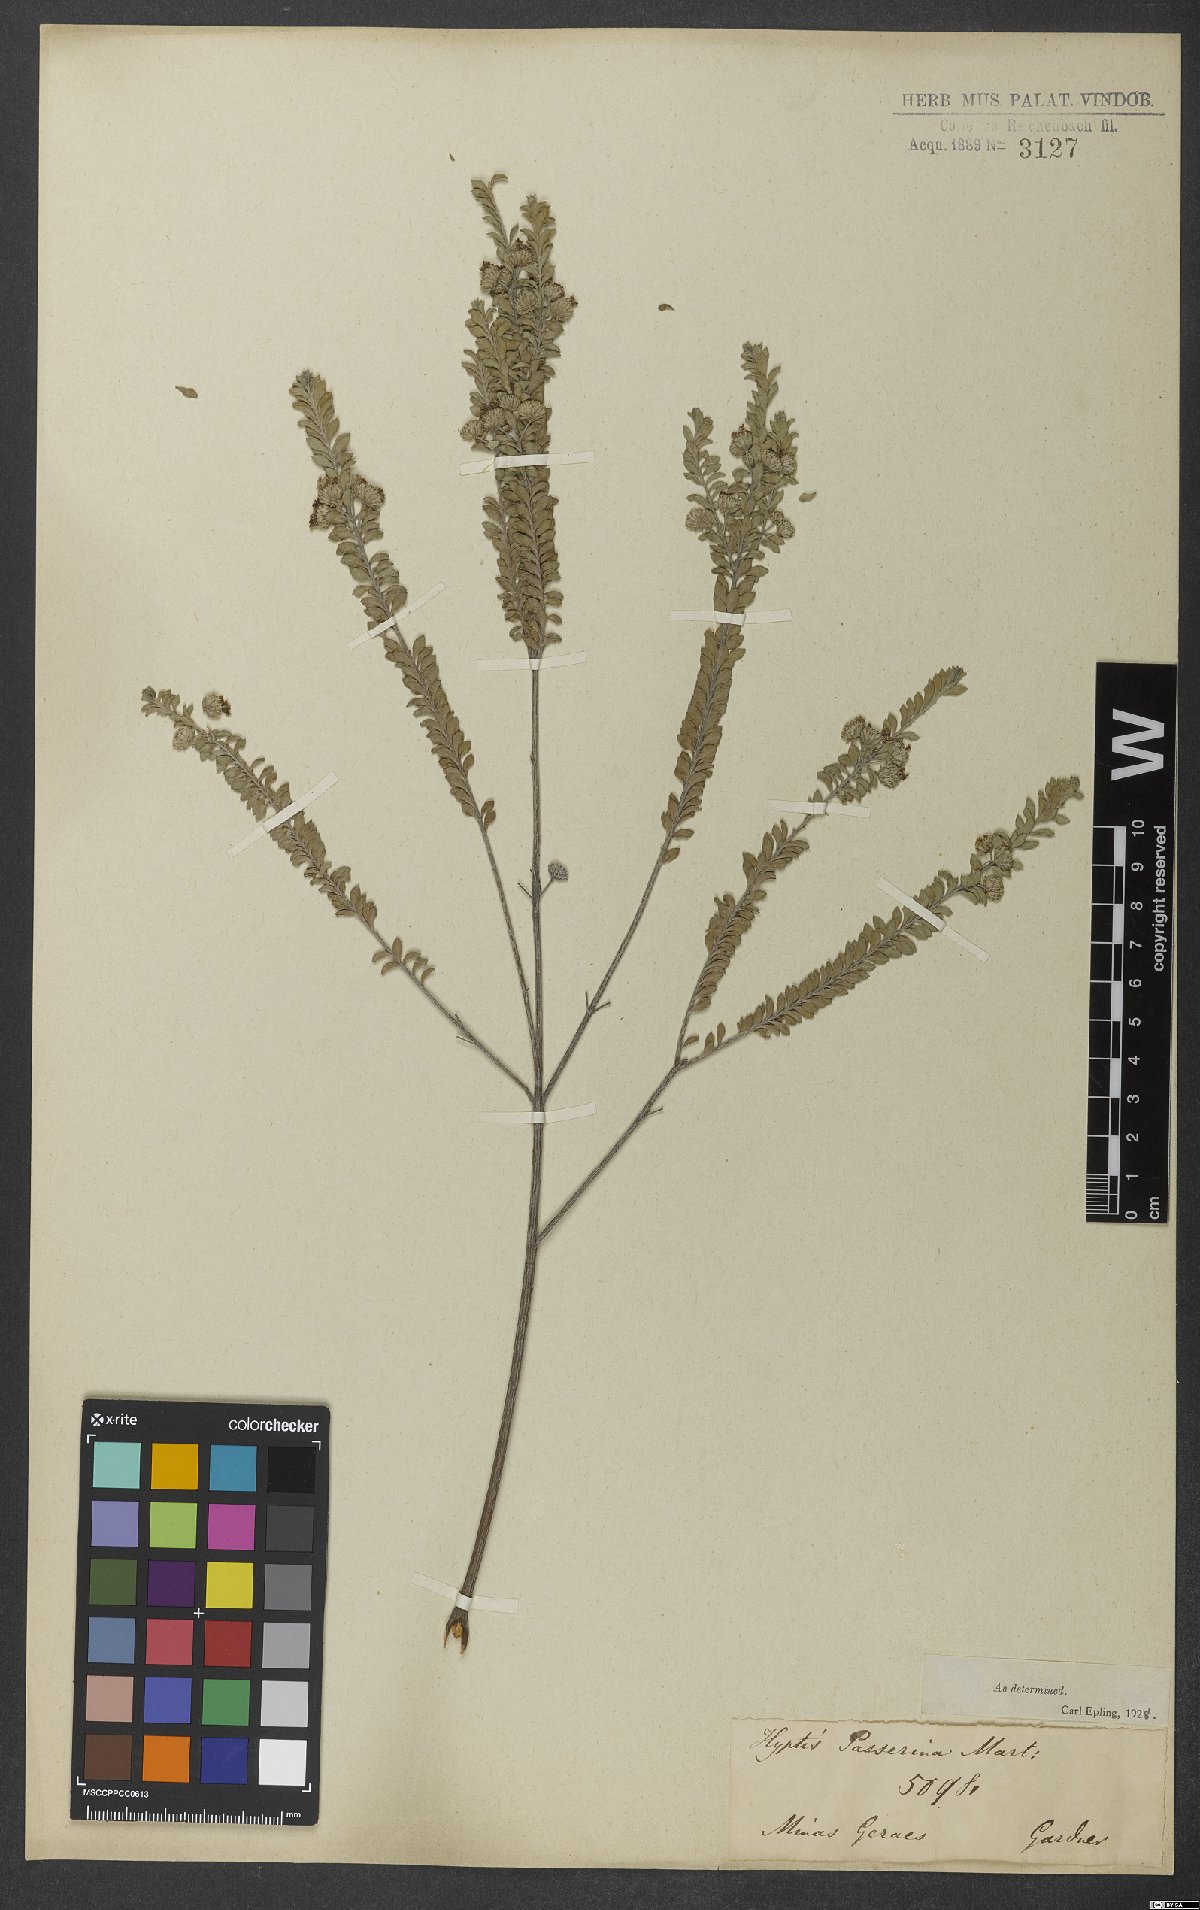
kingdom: Plantae
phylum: Tracheophyta
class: Magnoliopsida
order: Lamiales
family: Lamiaceae
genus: Hyptis
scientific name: Hyptis passerina
